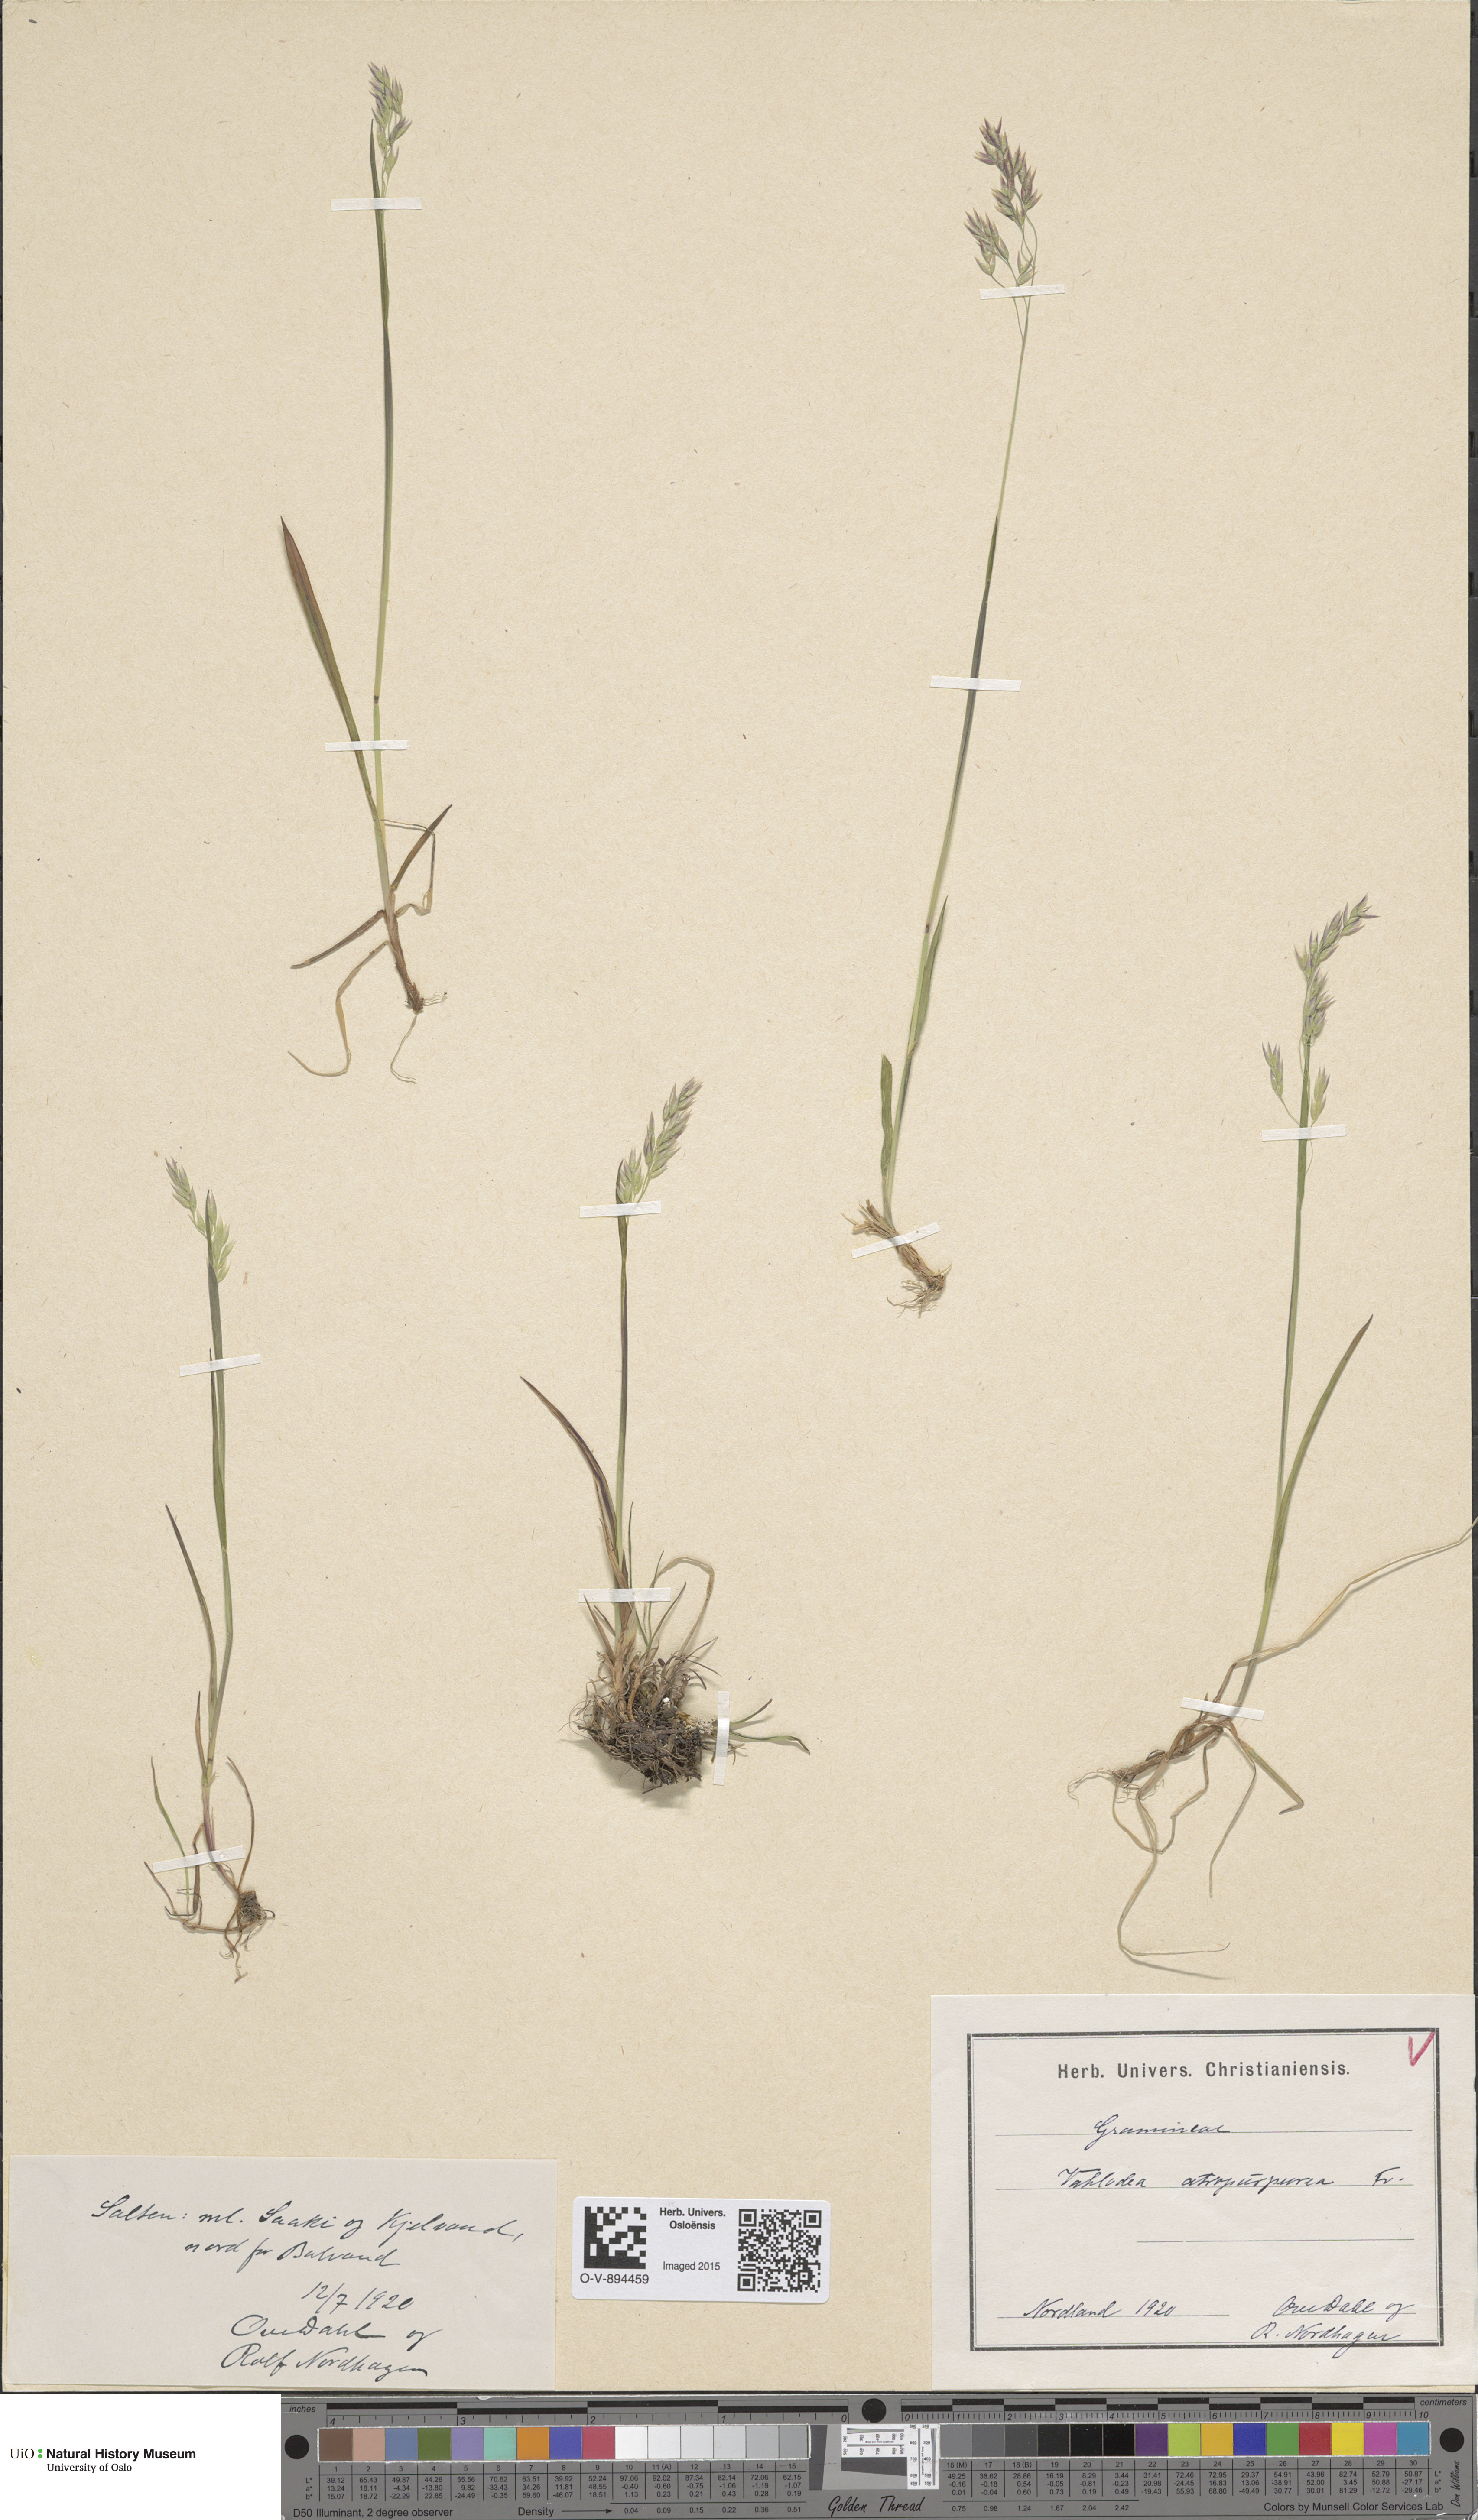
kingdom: Plantae
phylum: Tracheophyta
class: Liliopsida
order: Poales
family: Poaceae
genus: Vahlodea
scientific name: Vahlodea atropurpurea
